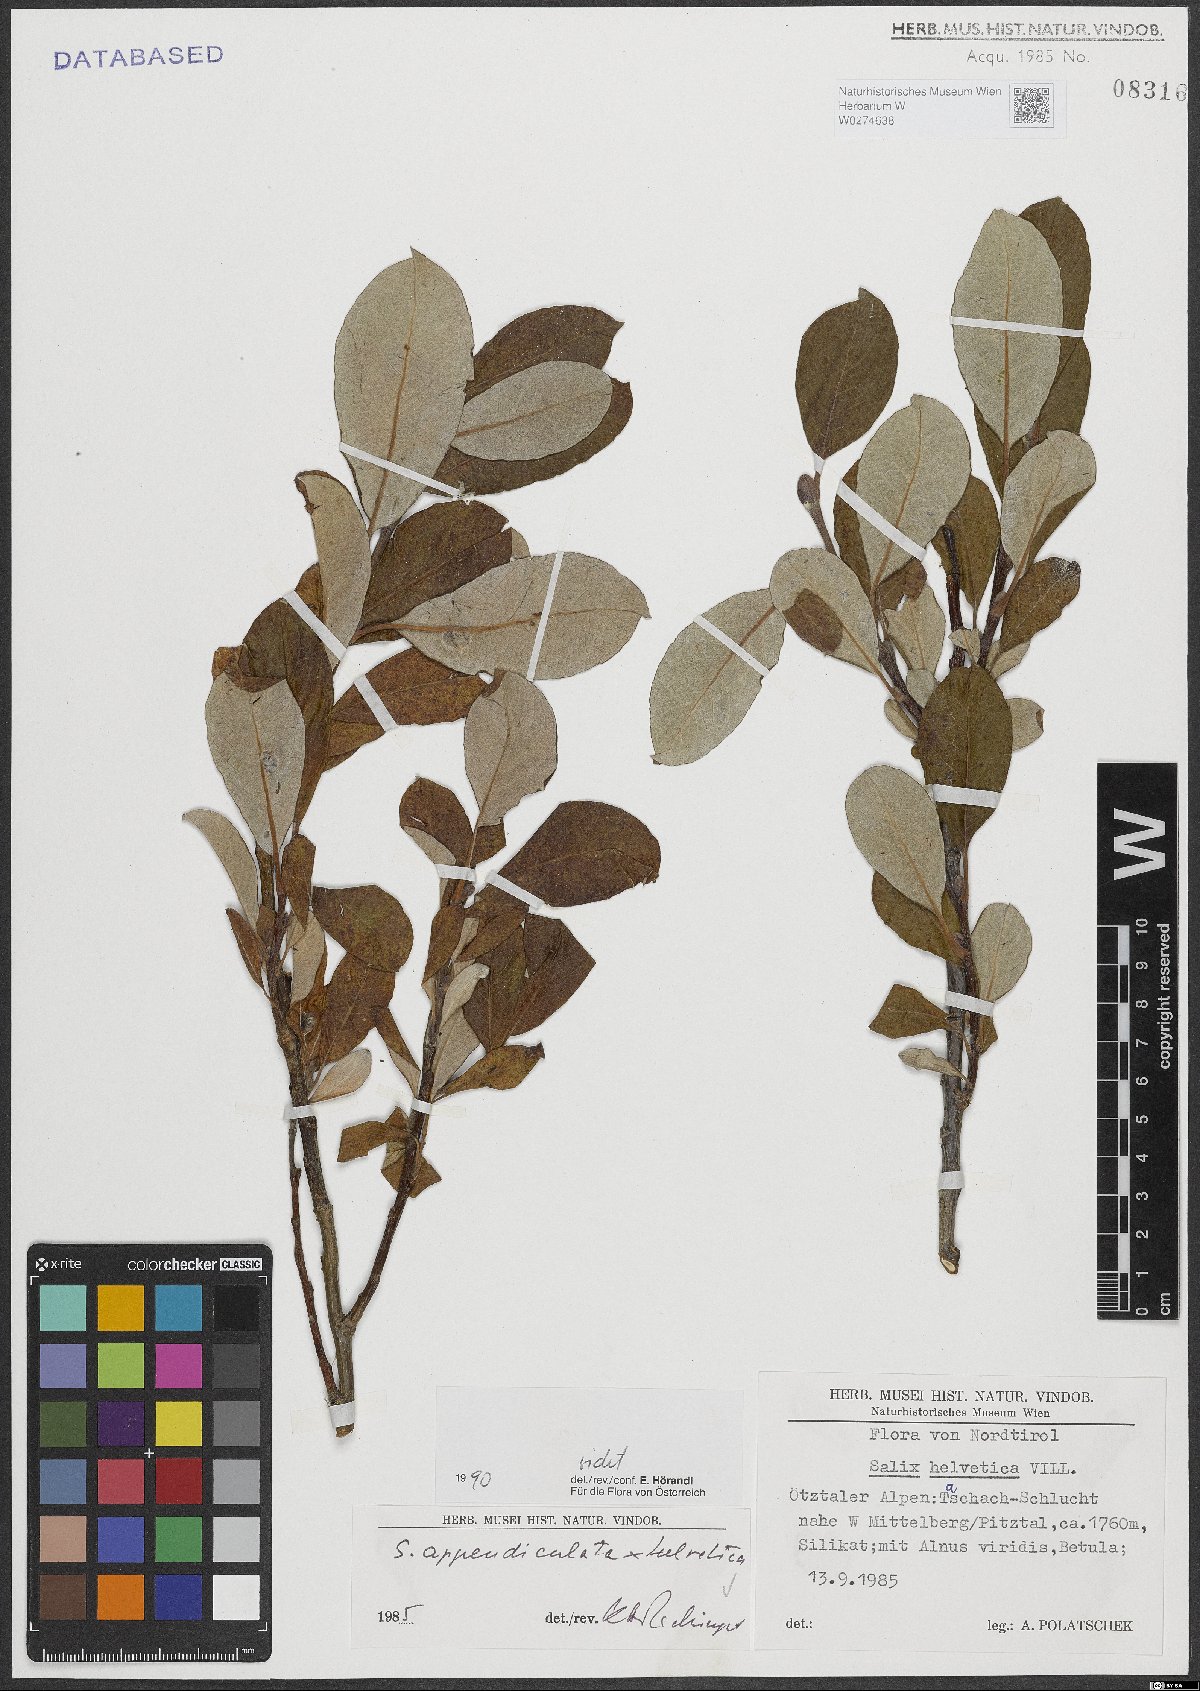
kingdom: Plantae
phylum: Tracheophyta
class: Magnoliopsida
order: Malpighiales
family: Salicaceae
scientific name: Salicaceae
